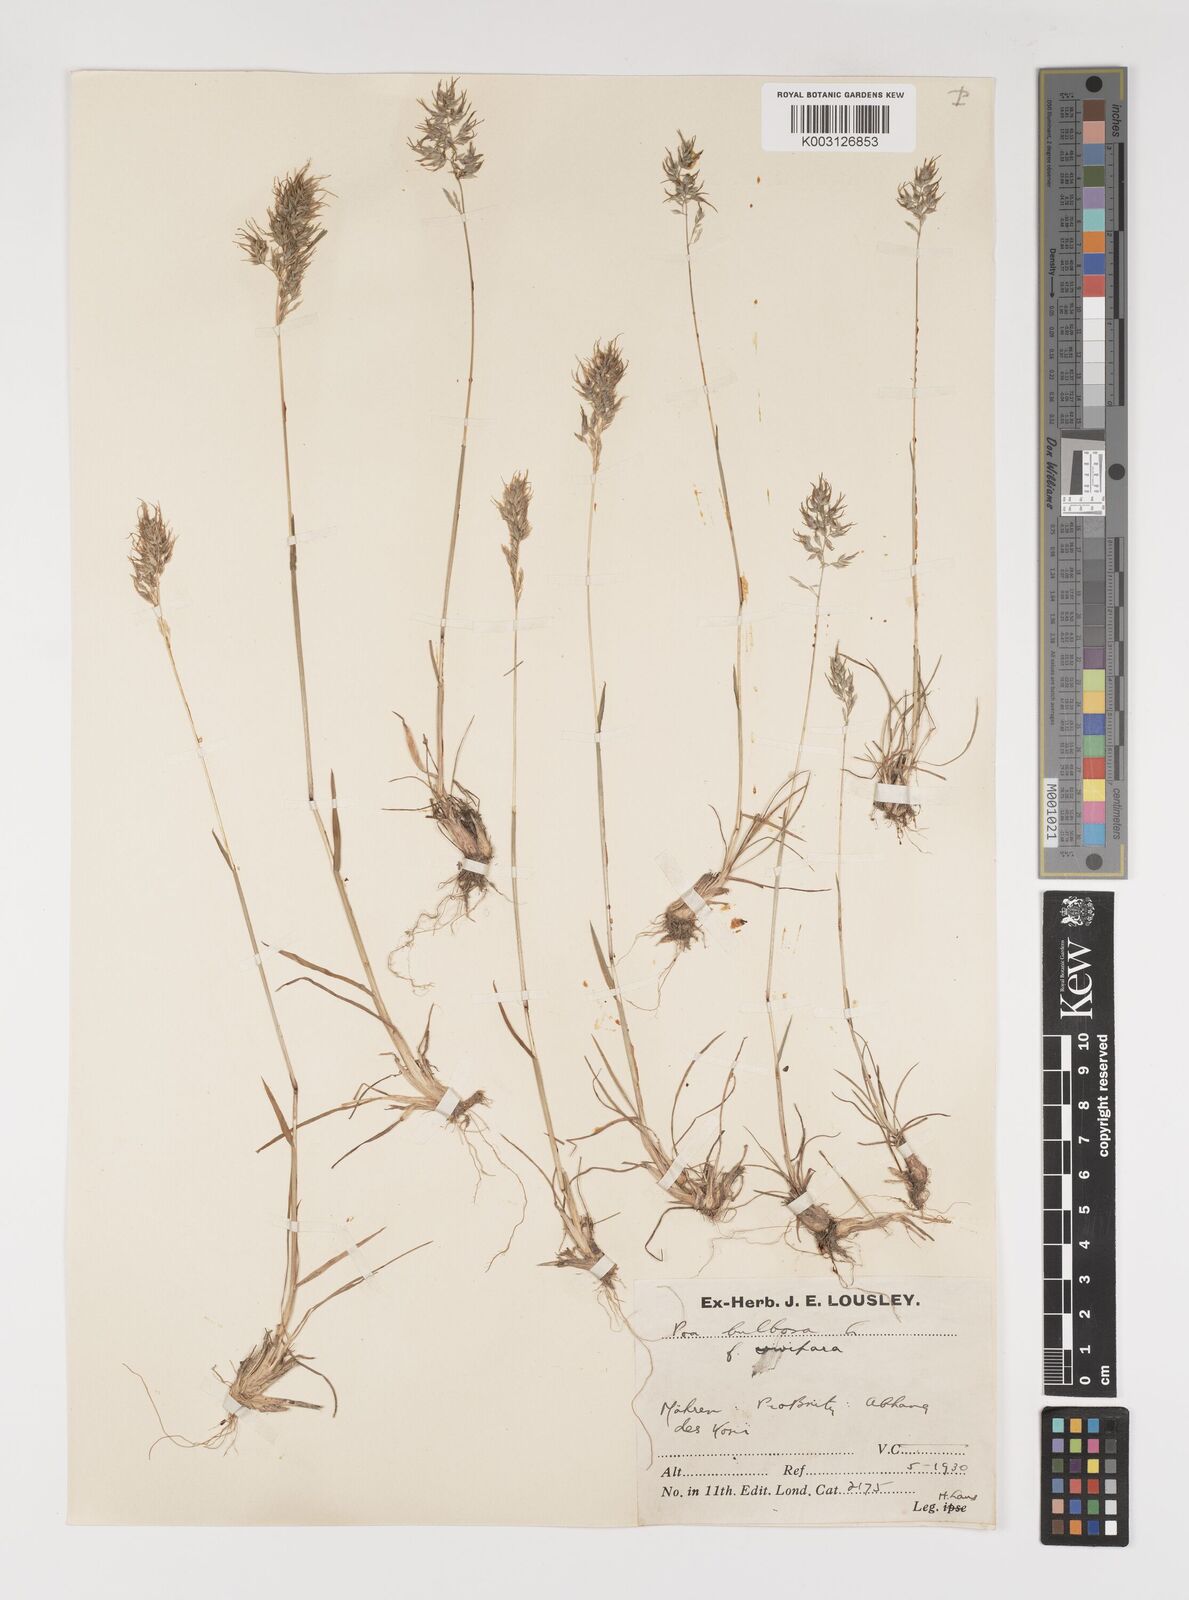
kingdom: Plantae
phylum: Tracheophyta
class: Liliopsida
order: Poales
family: Poaceae
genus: Poa
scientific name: Poa bulbosa
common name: Bulbous bluegrass
